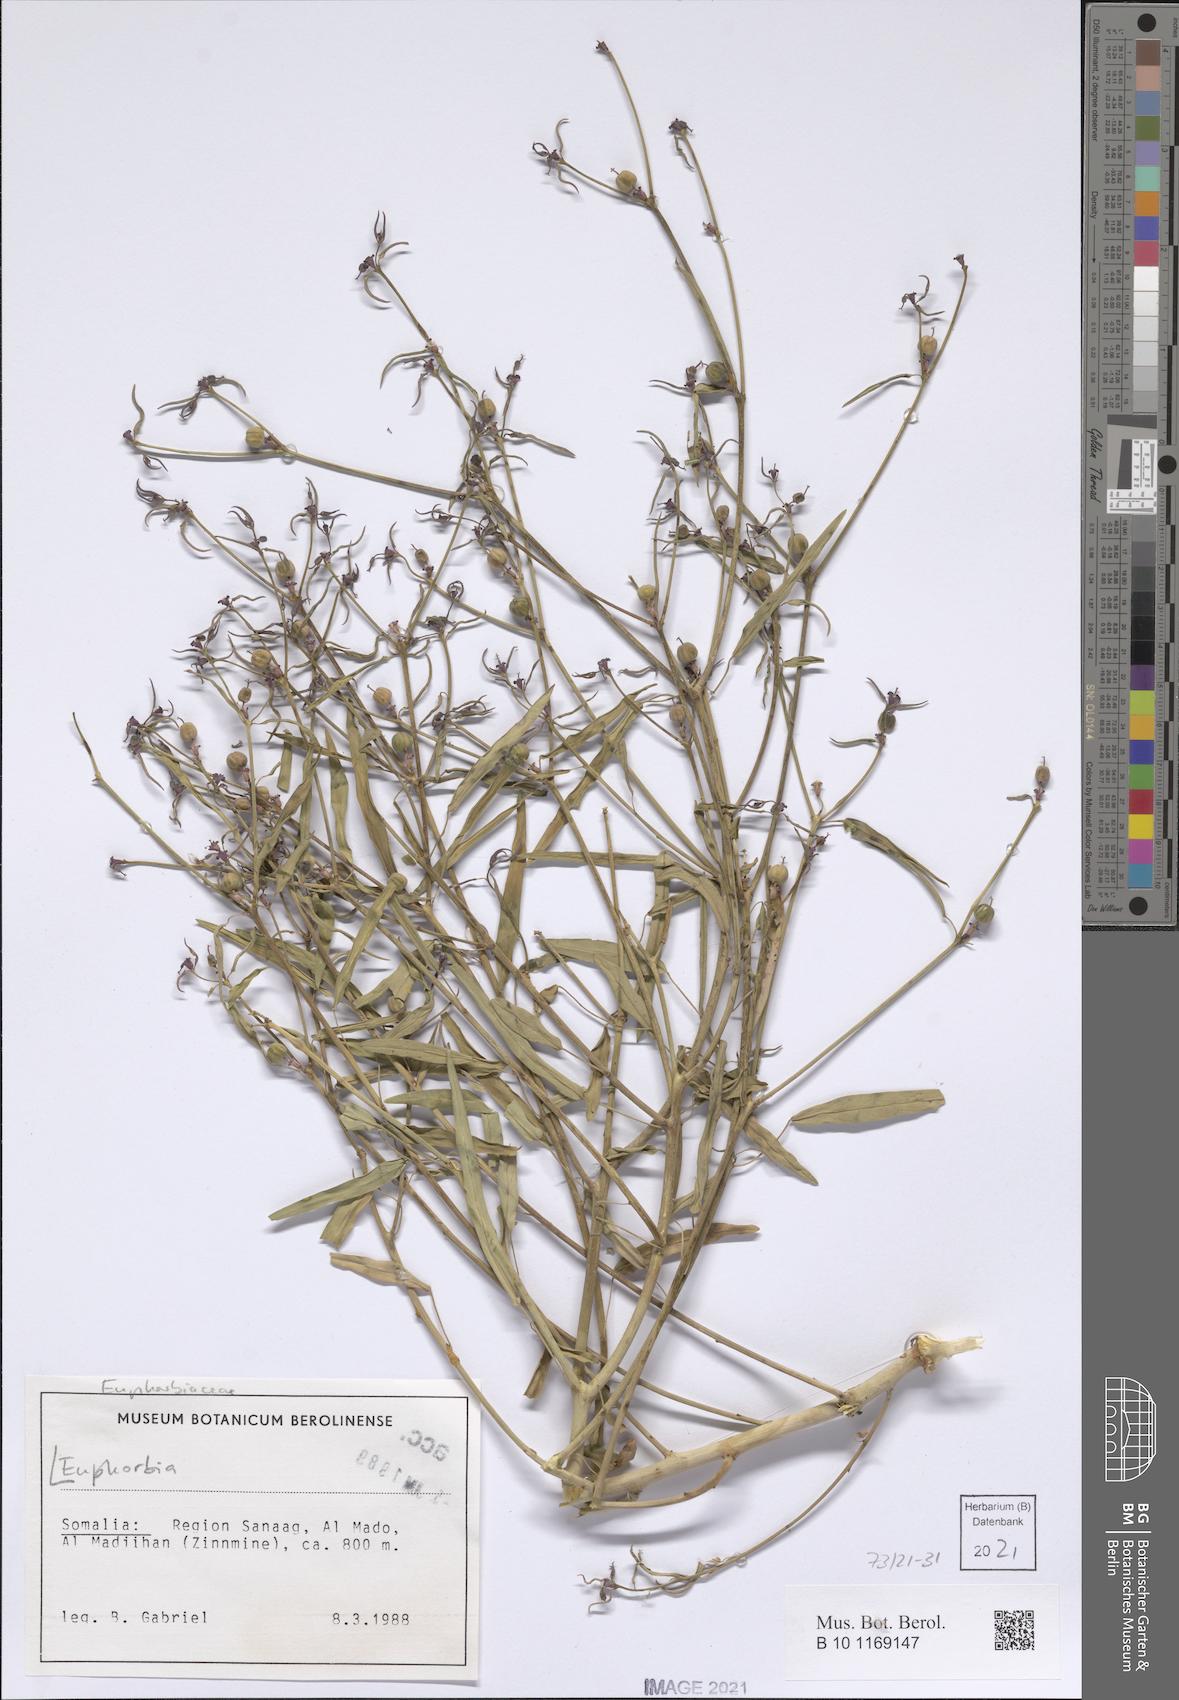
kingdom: Plantae
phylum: Tracheophyta
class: Magnoliopsida
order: Malpighiales
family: Euphorbiaceae
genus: Euphorbia
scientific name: Euphorbia
